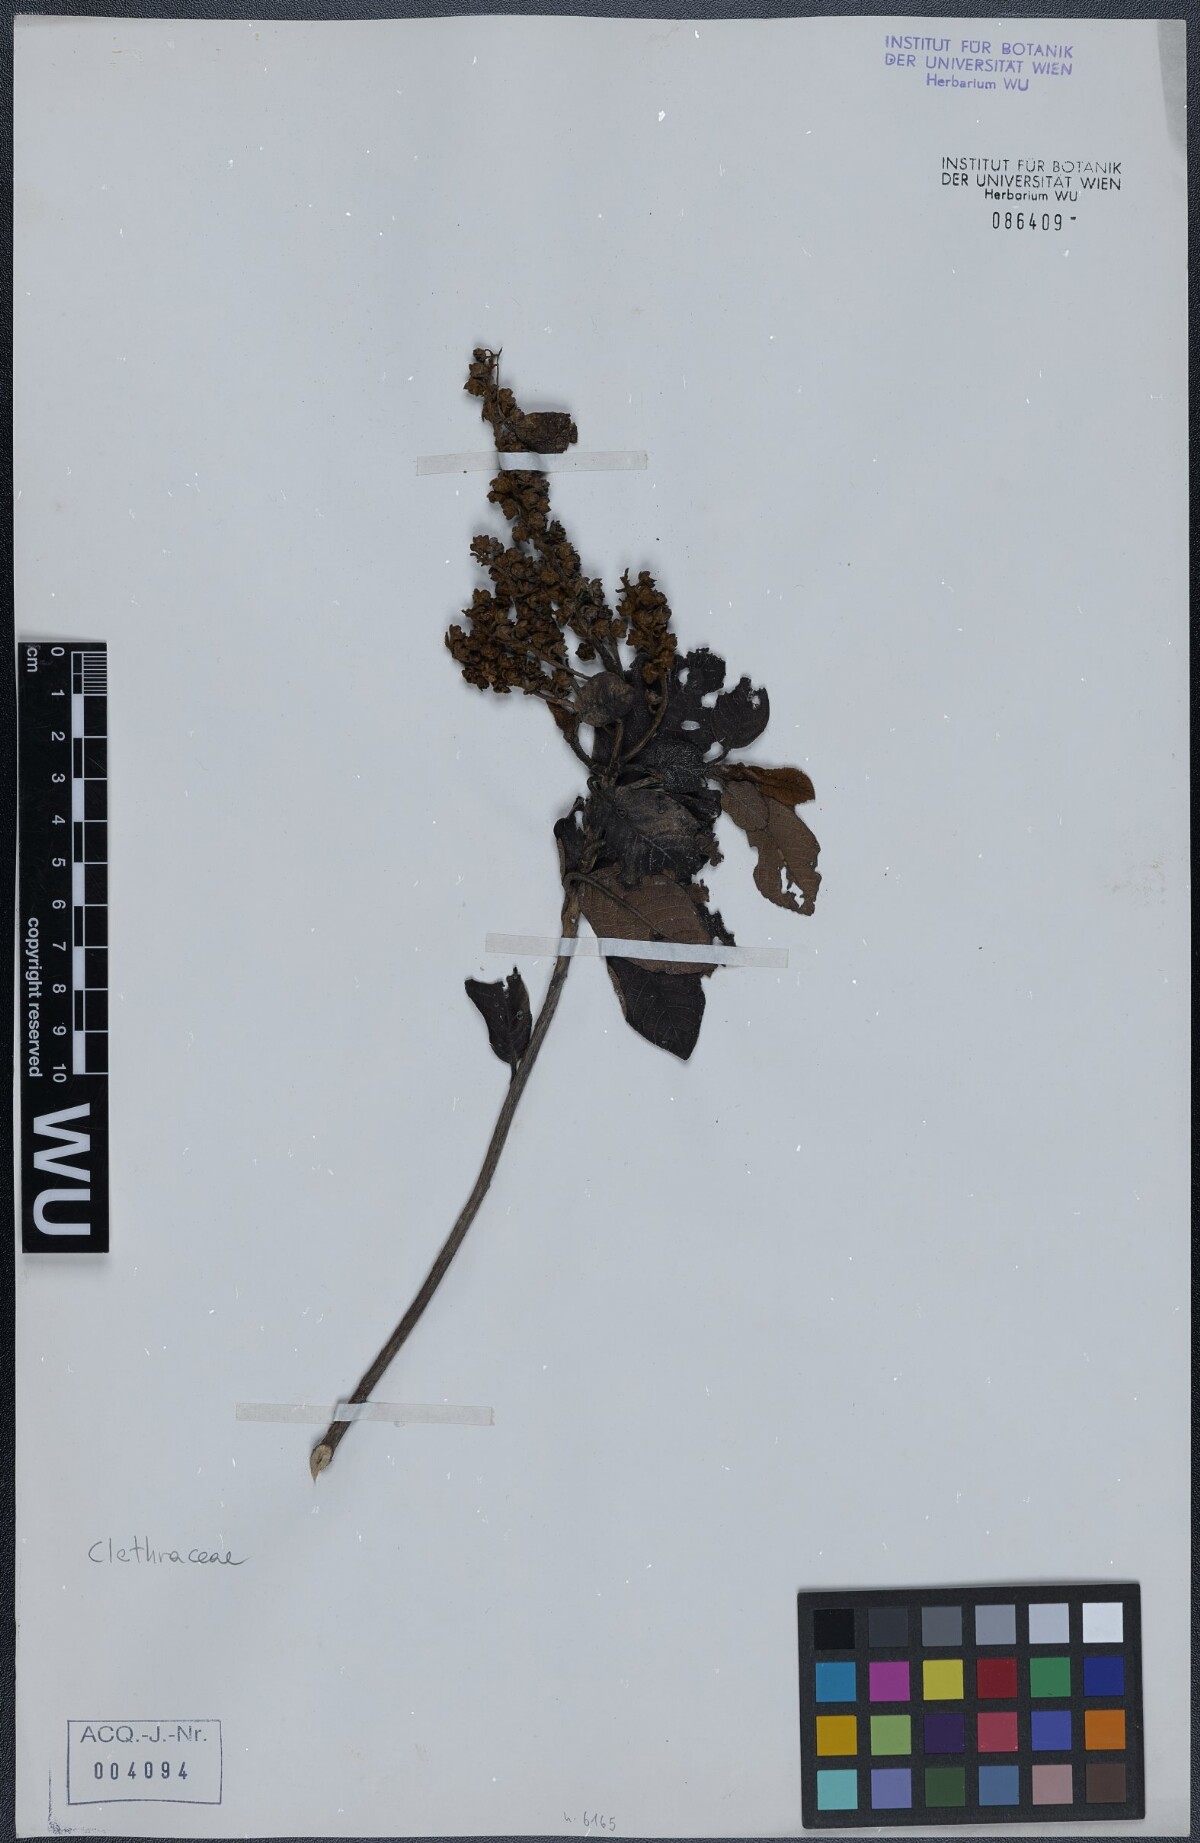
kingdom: Plantae
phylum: Tracheophyta
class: Magnoliopsida
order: Ericales
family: Clethraceae
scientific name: Clethraceae
